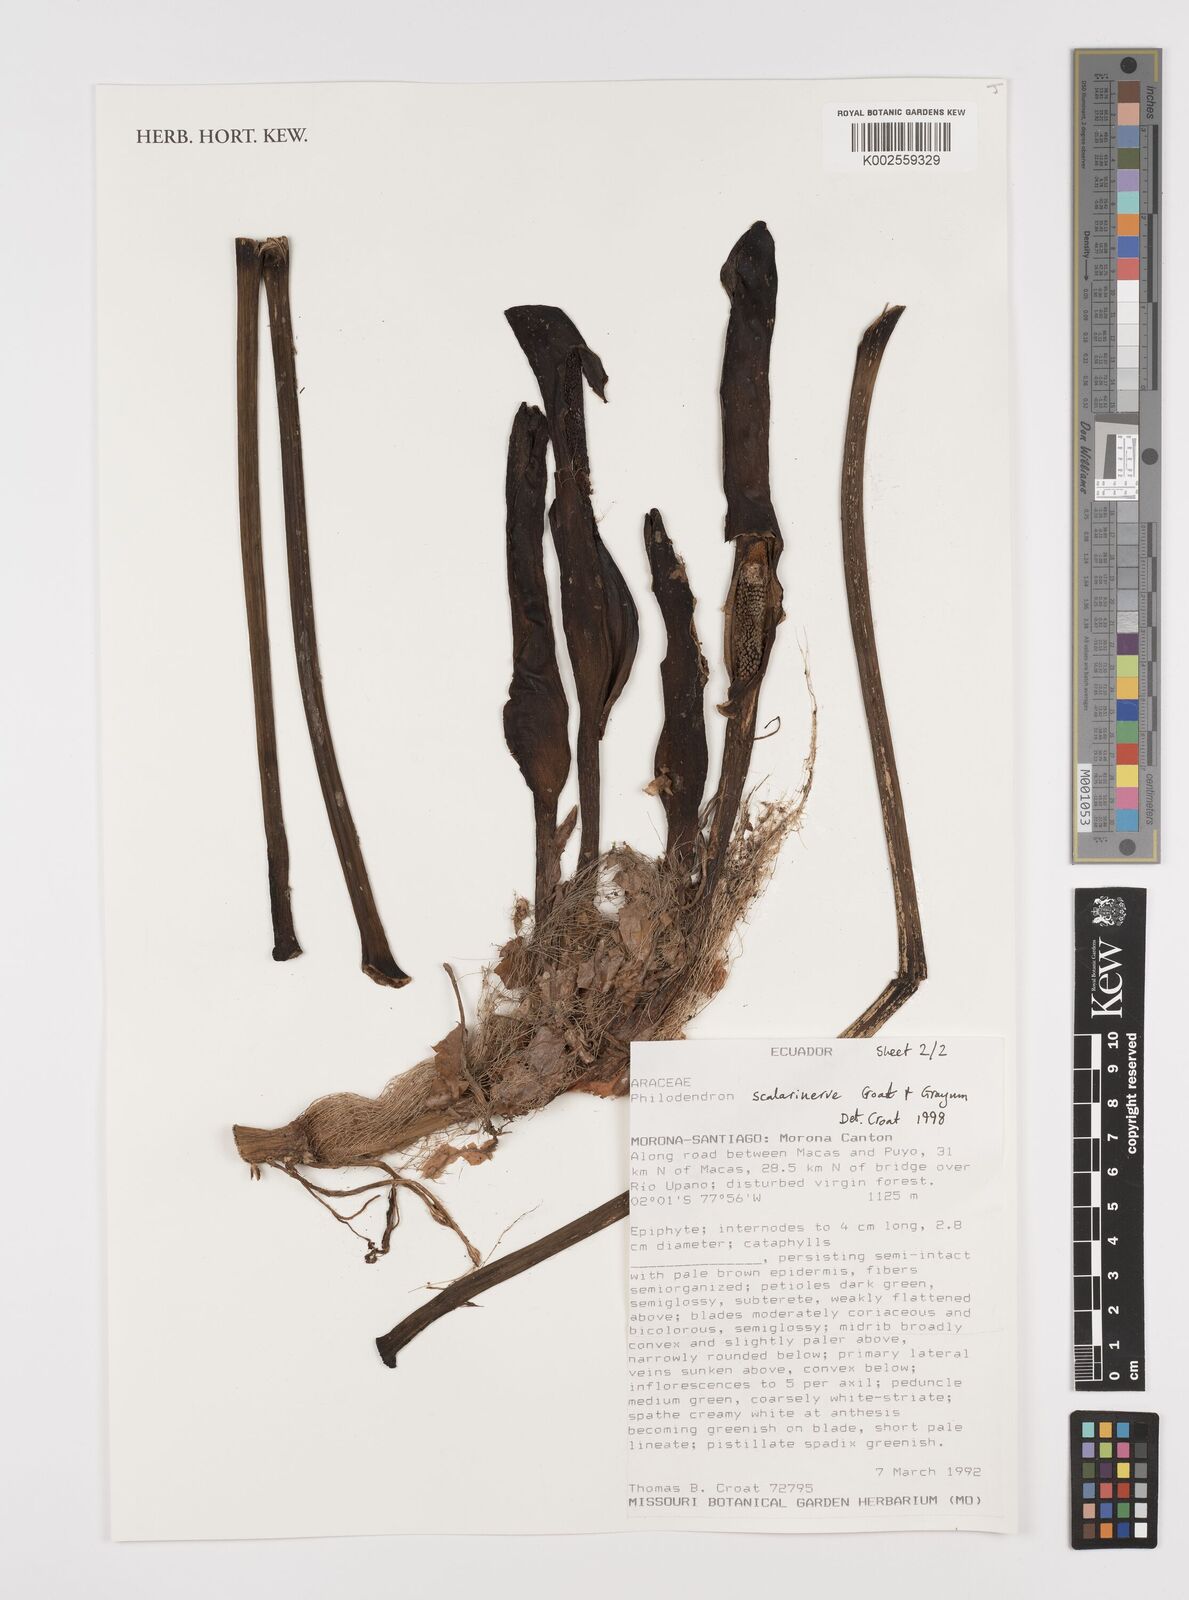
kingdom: Plantae
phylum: Tracheophyta
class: Liliopsida
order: Alismatales
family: Araceae
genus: Philodendron
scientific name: Philodendron scalarinerve
